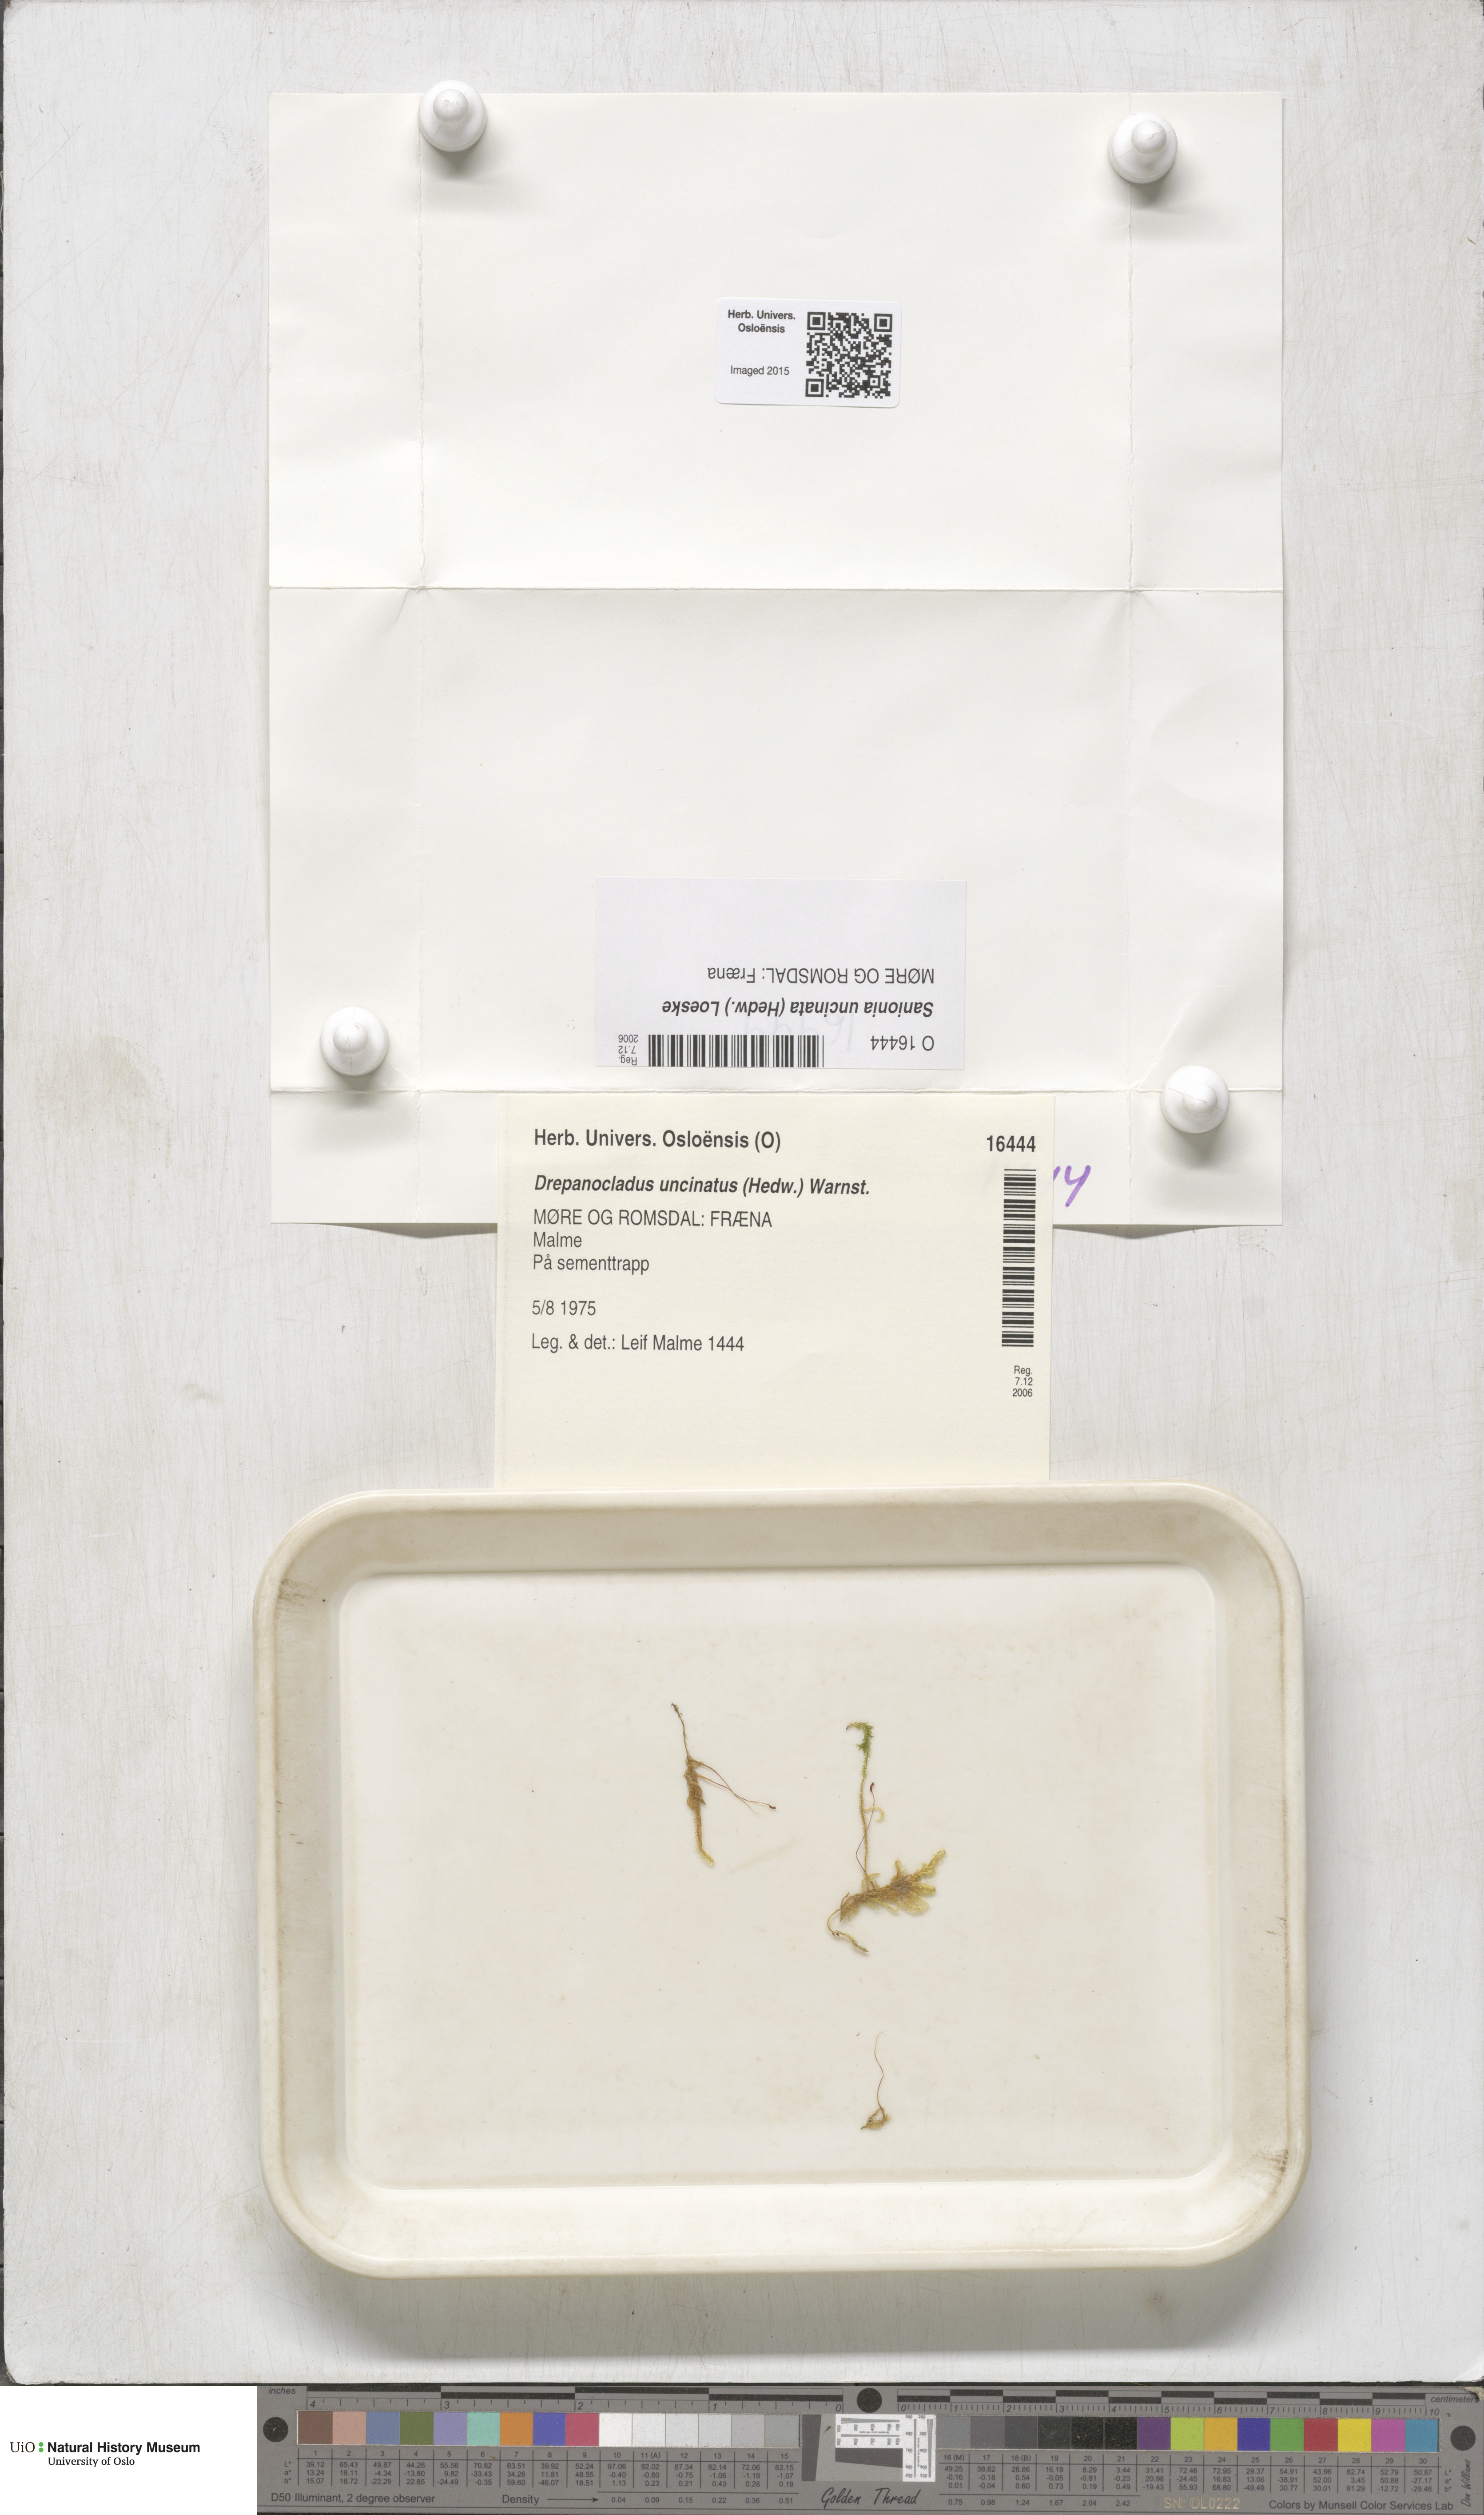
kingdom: Plantae
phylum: Bryophyta
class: Bryopsida
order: Hypnales
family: Scorpidiaceae
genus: Sanionia
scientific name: Sanionia uncinata
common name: Sickle moss
